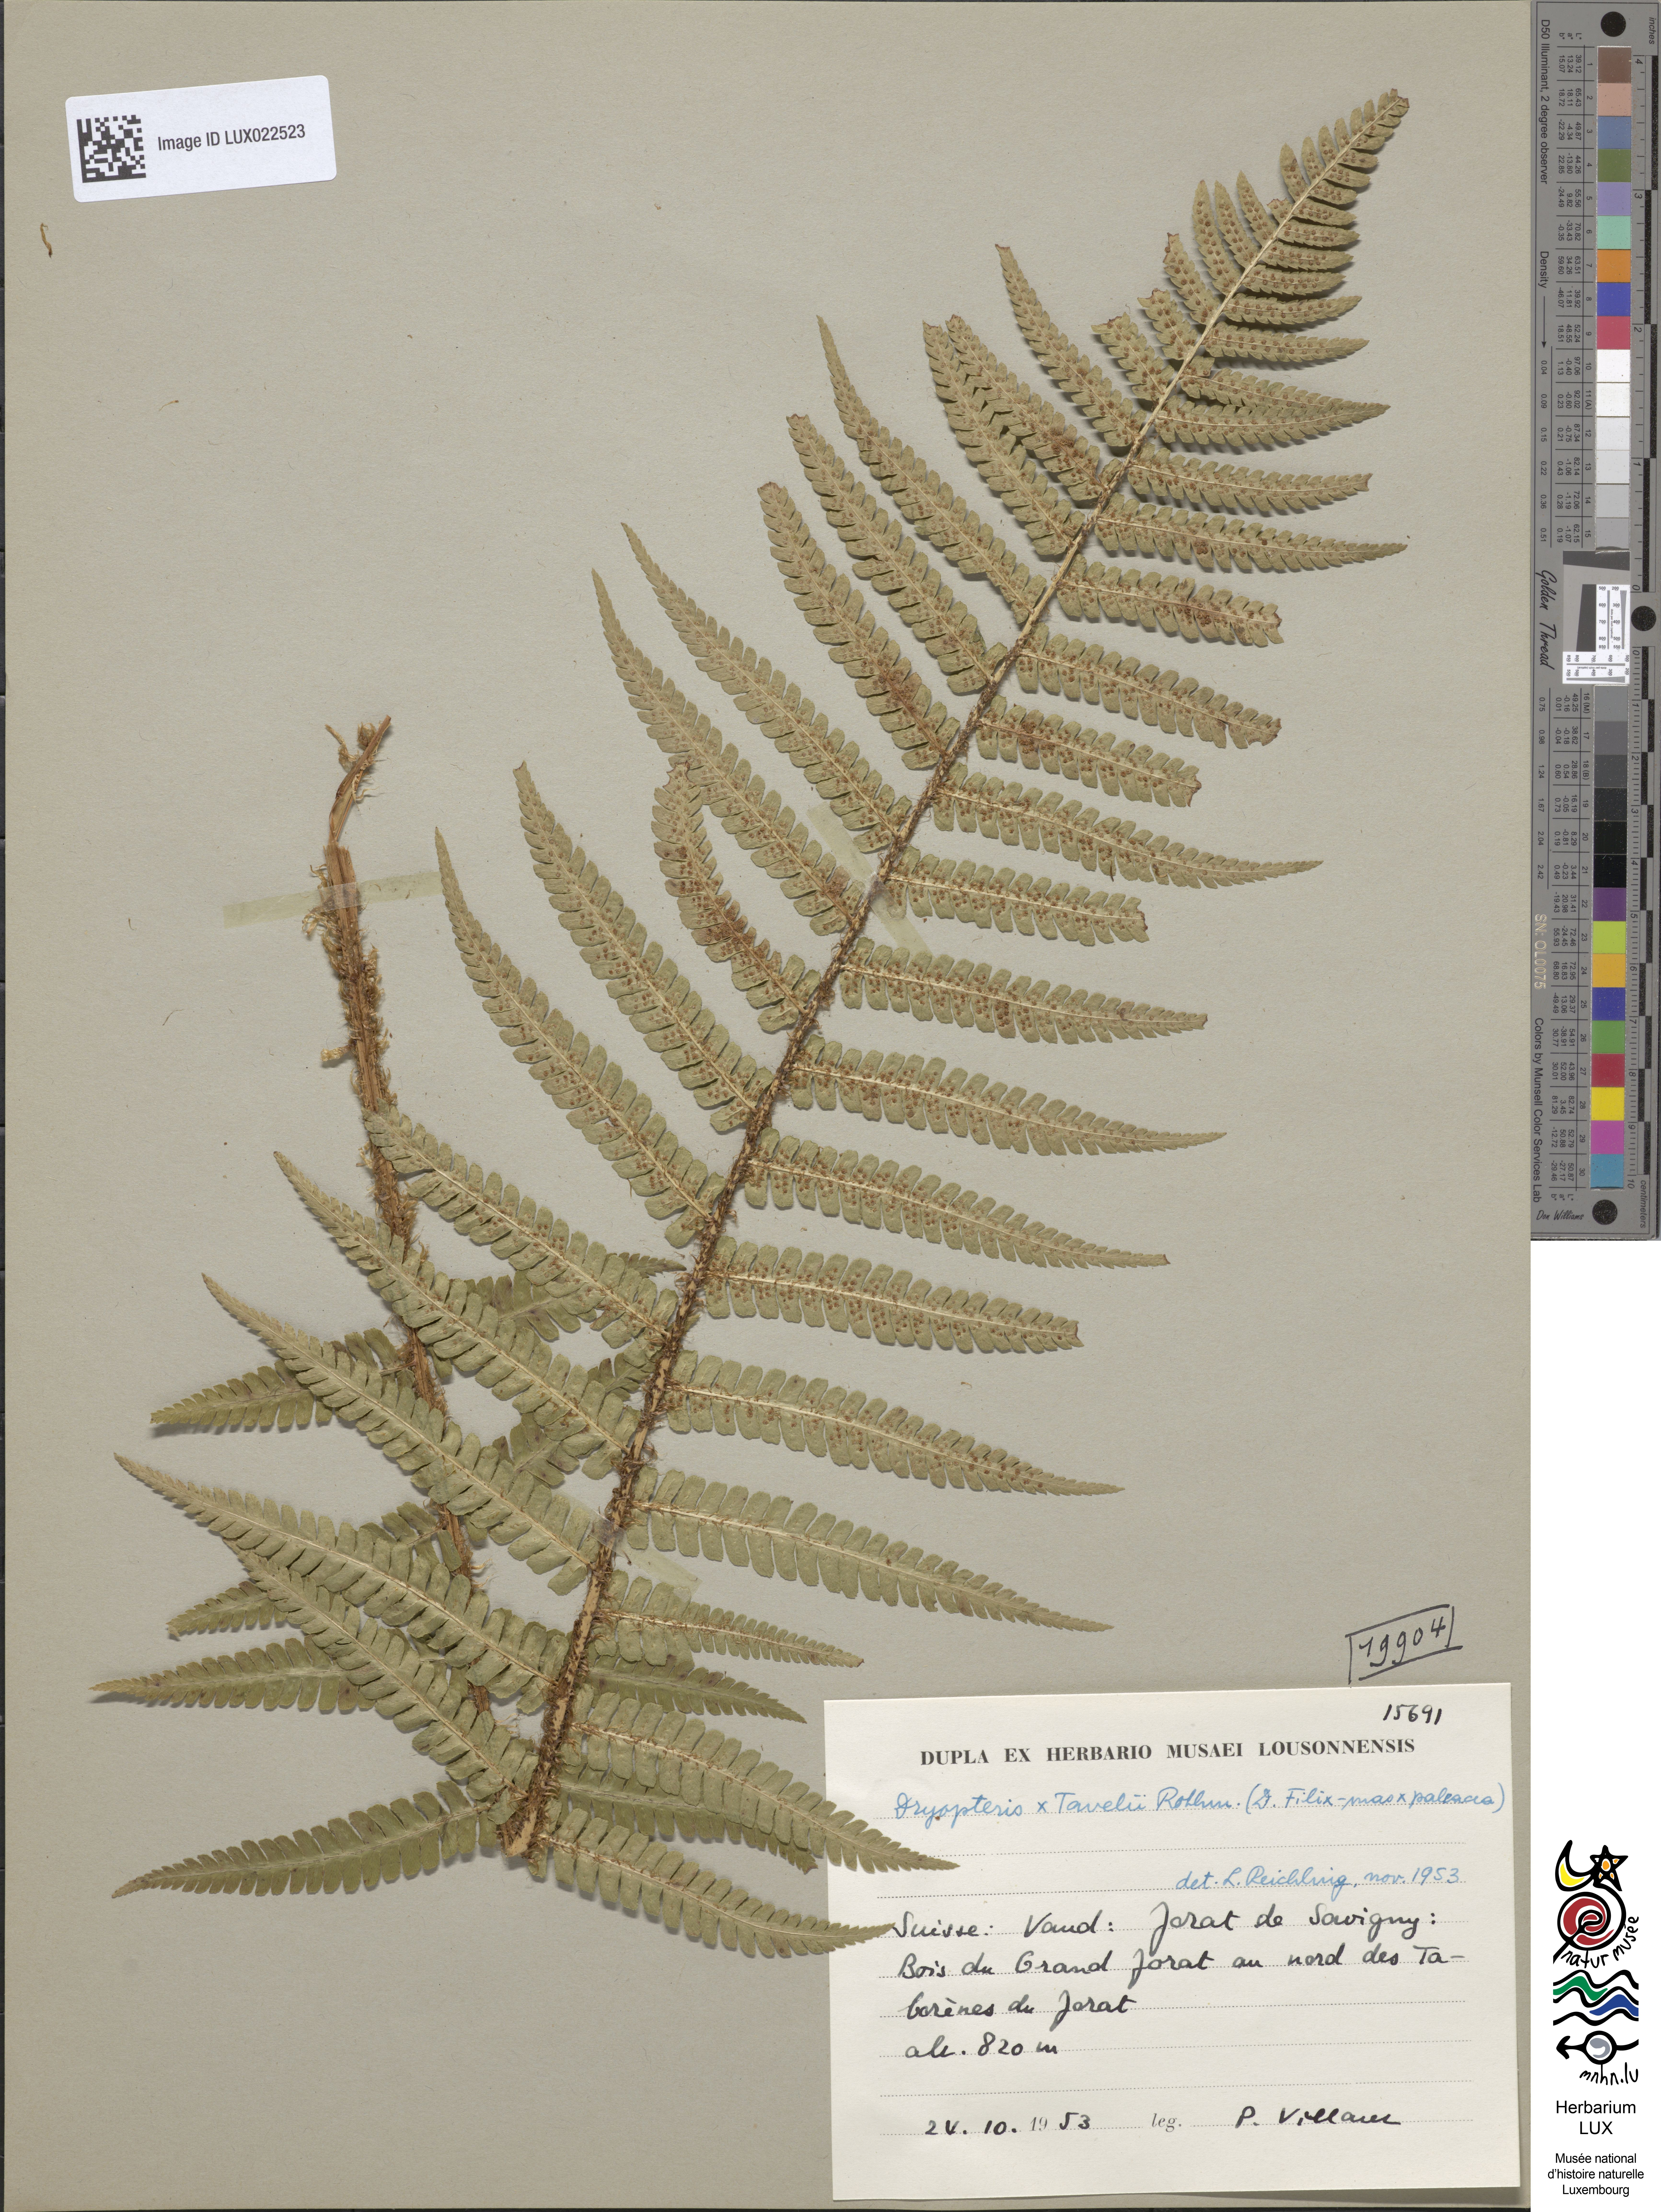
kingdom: Plantae
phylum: Tracheophyta
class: Polypodiopsida
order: Polypodiales
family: Dryopteridaceae
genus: Dryopteris
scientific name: Dryopteris borreri
